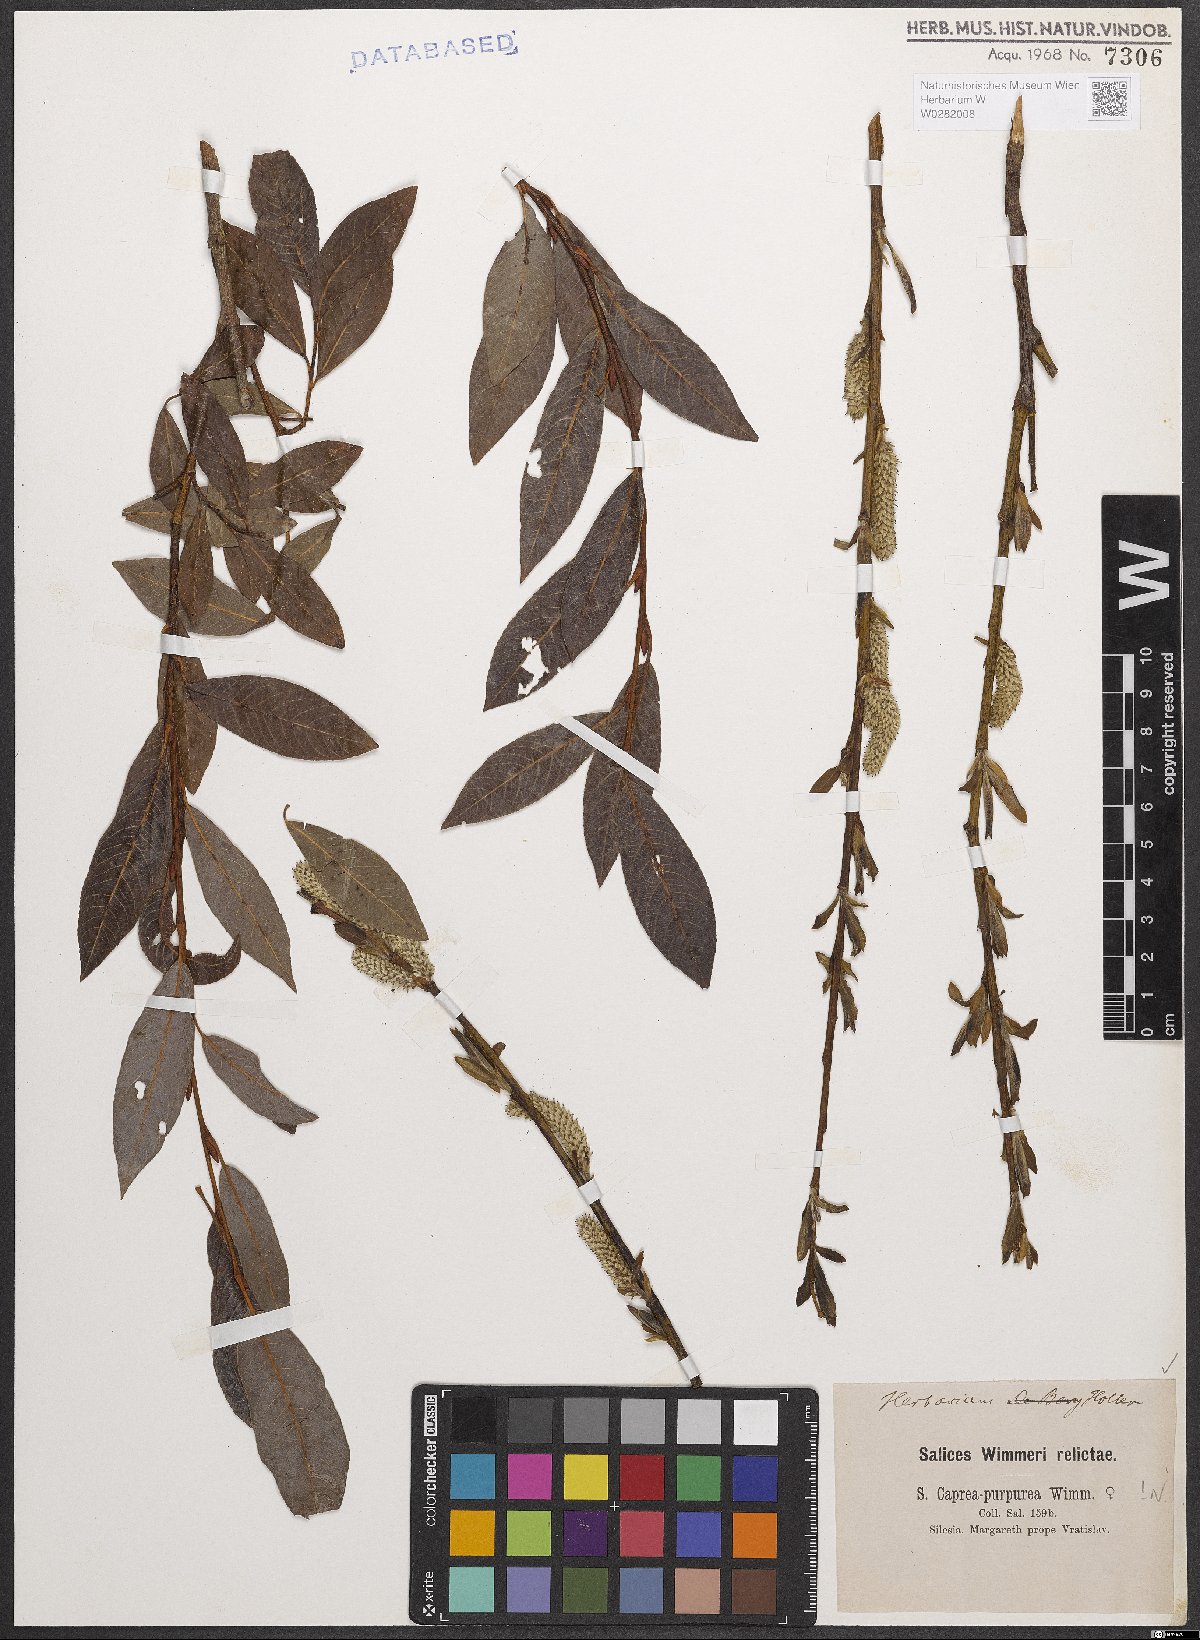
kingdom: Plantae
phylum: Tracheophyta
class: Magnoliopsida
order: Malpighiales
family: Salicaceae
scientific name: Salicaceae
